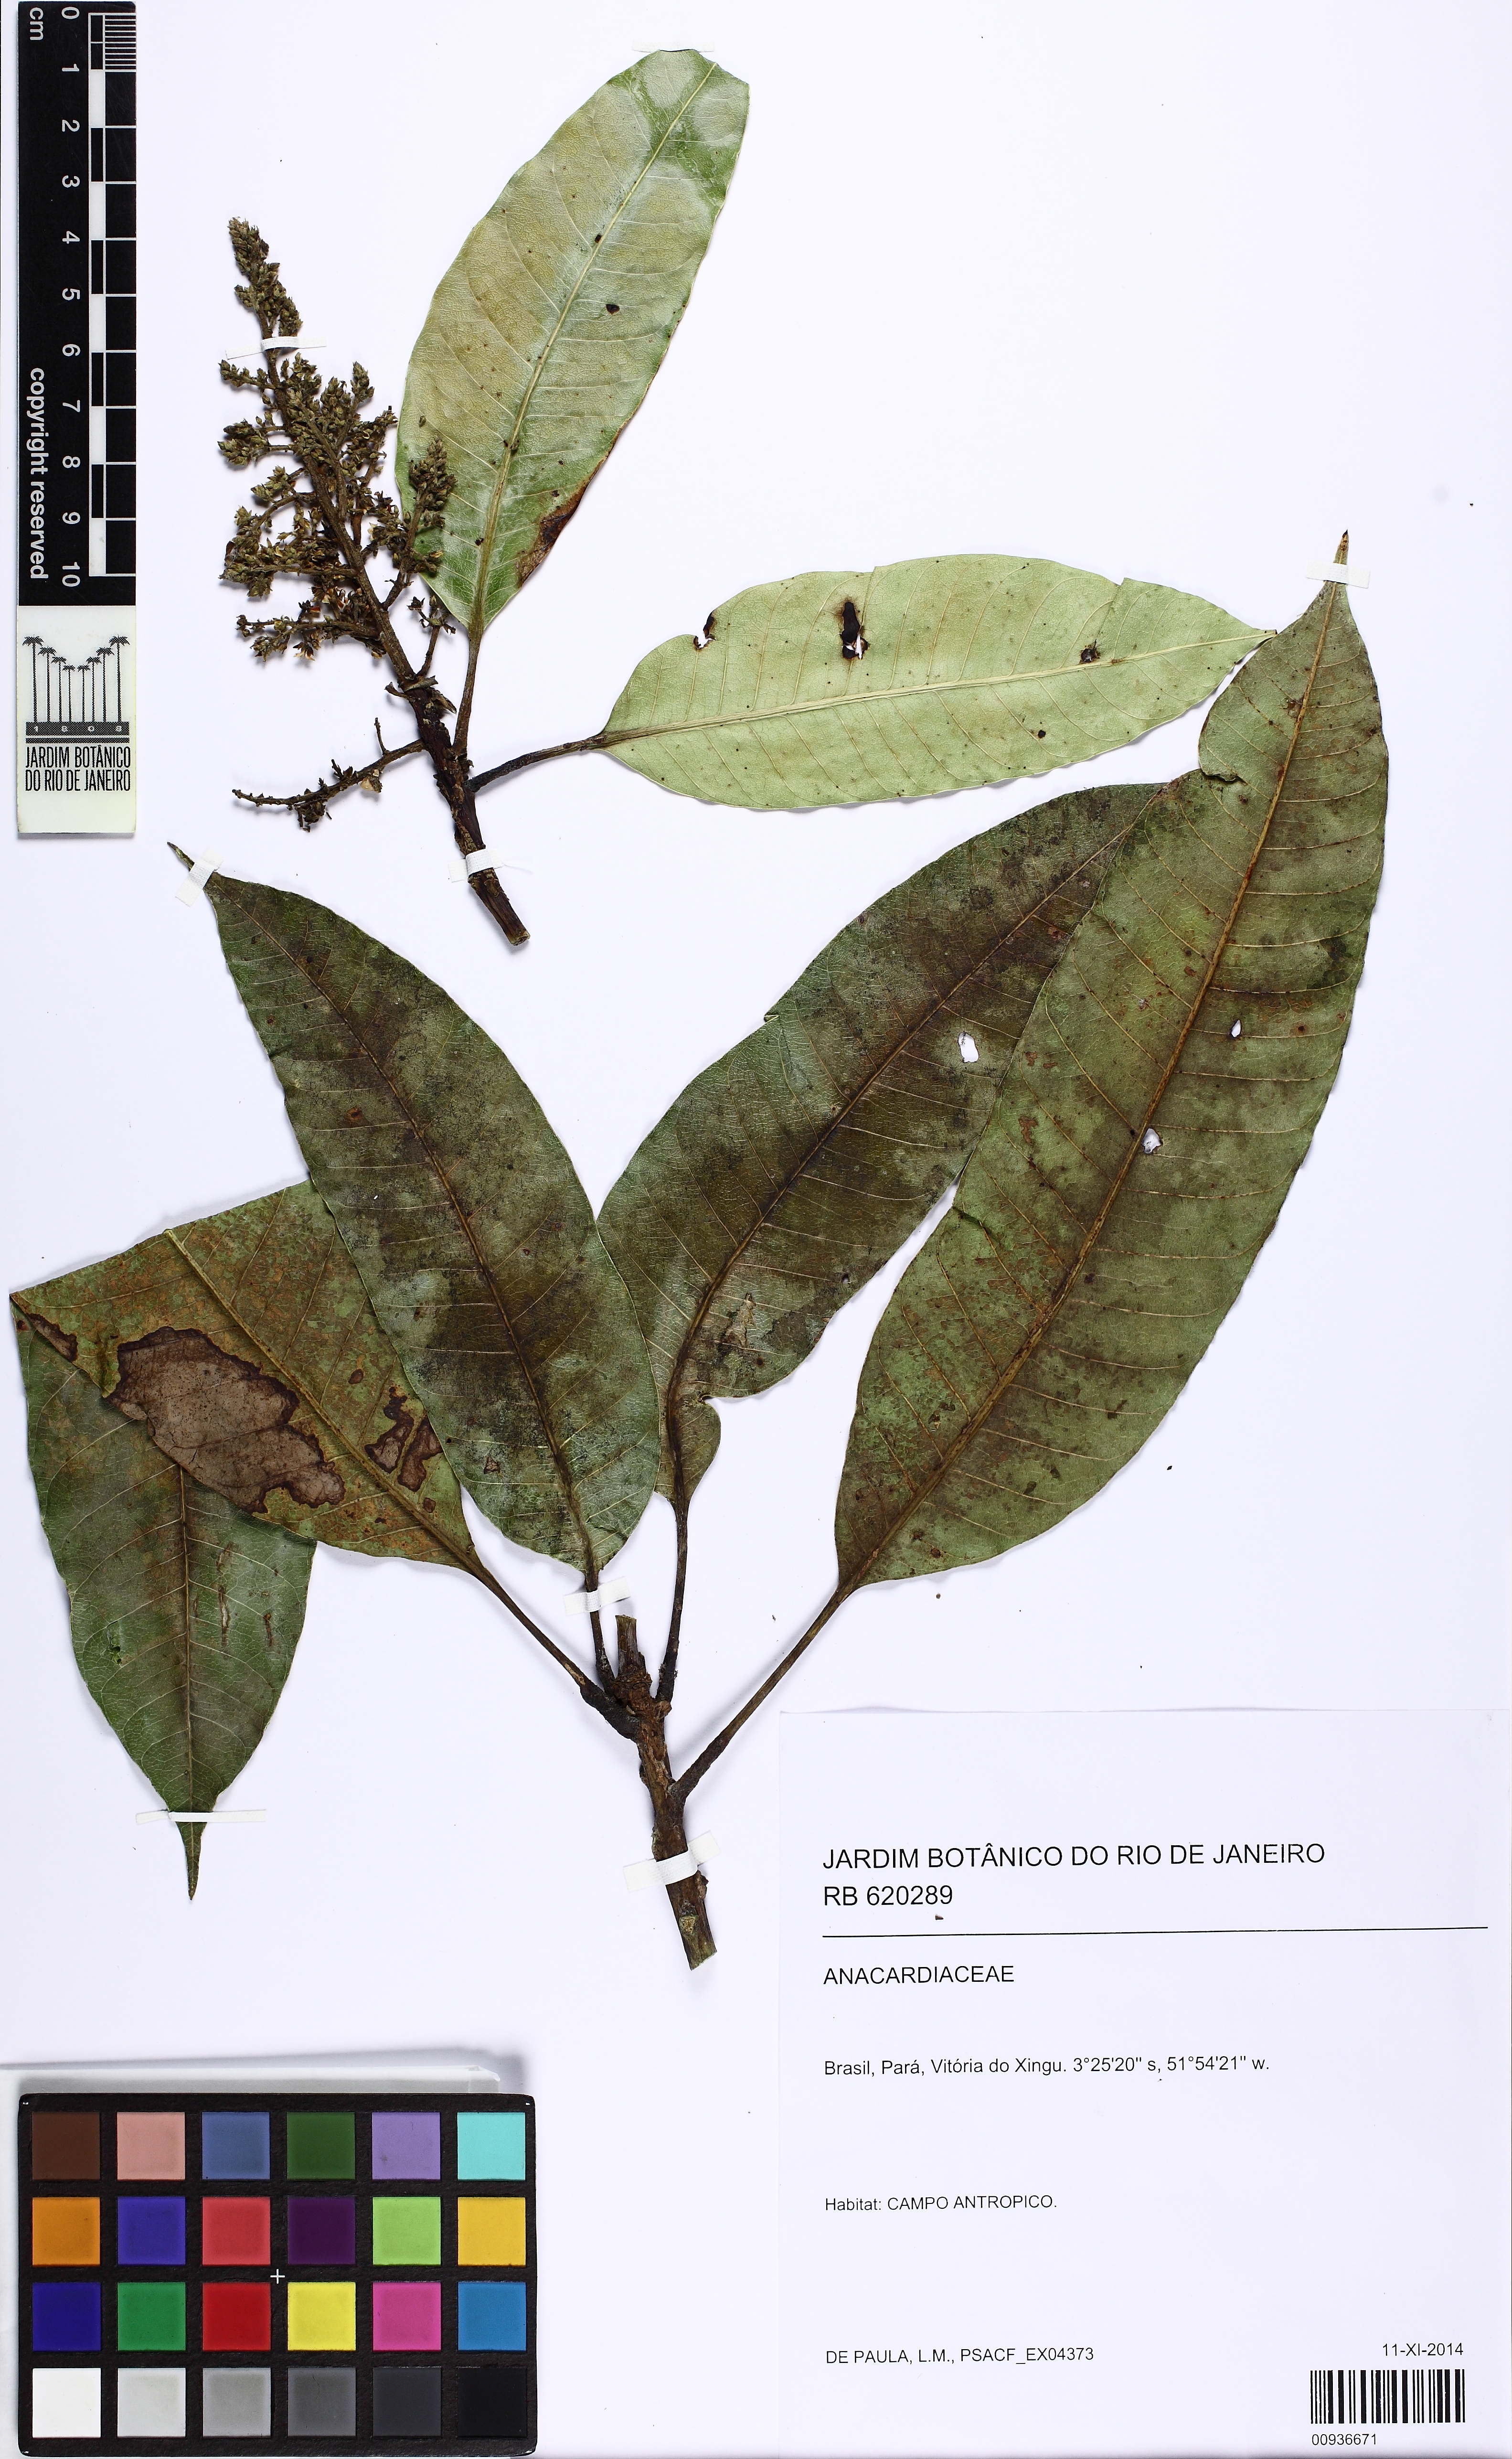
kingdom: Plantae
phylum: Tracheophyta
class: Magnoliopsida
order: Sapindales
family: Anacardiaceae
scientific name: Anacardiaceae
